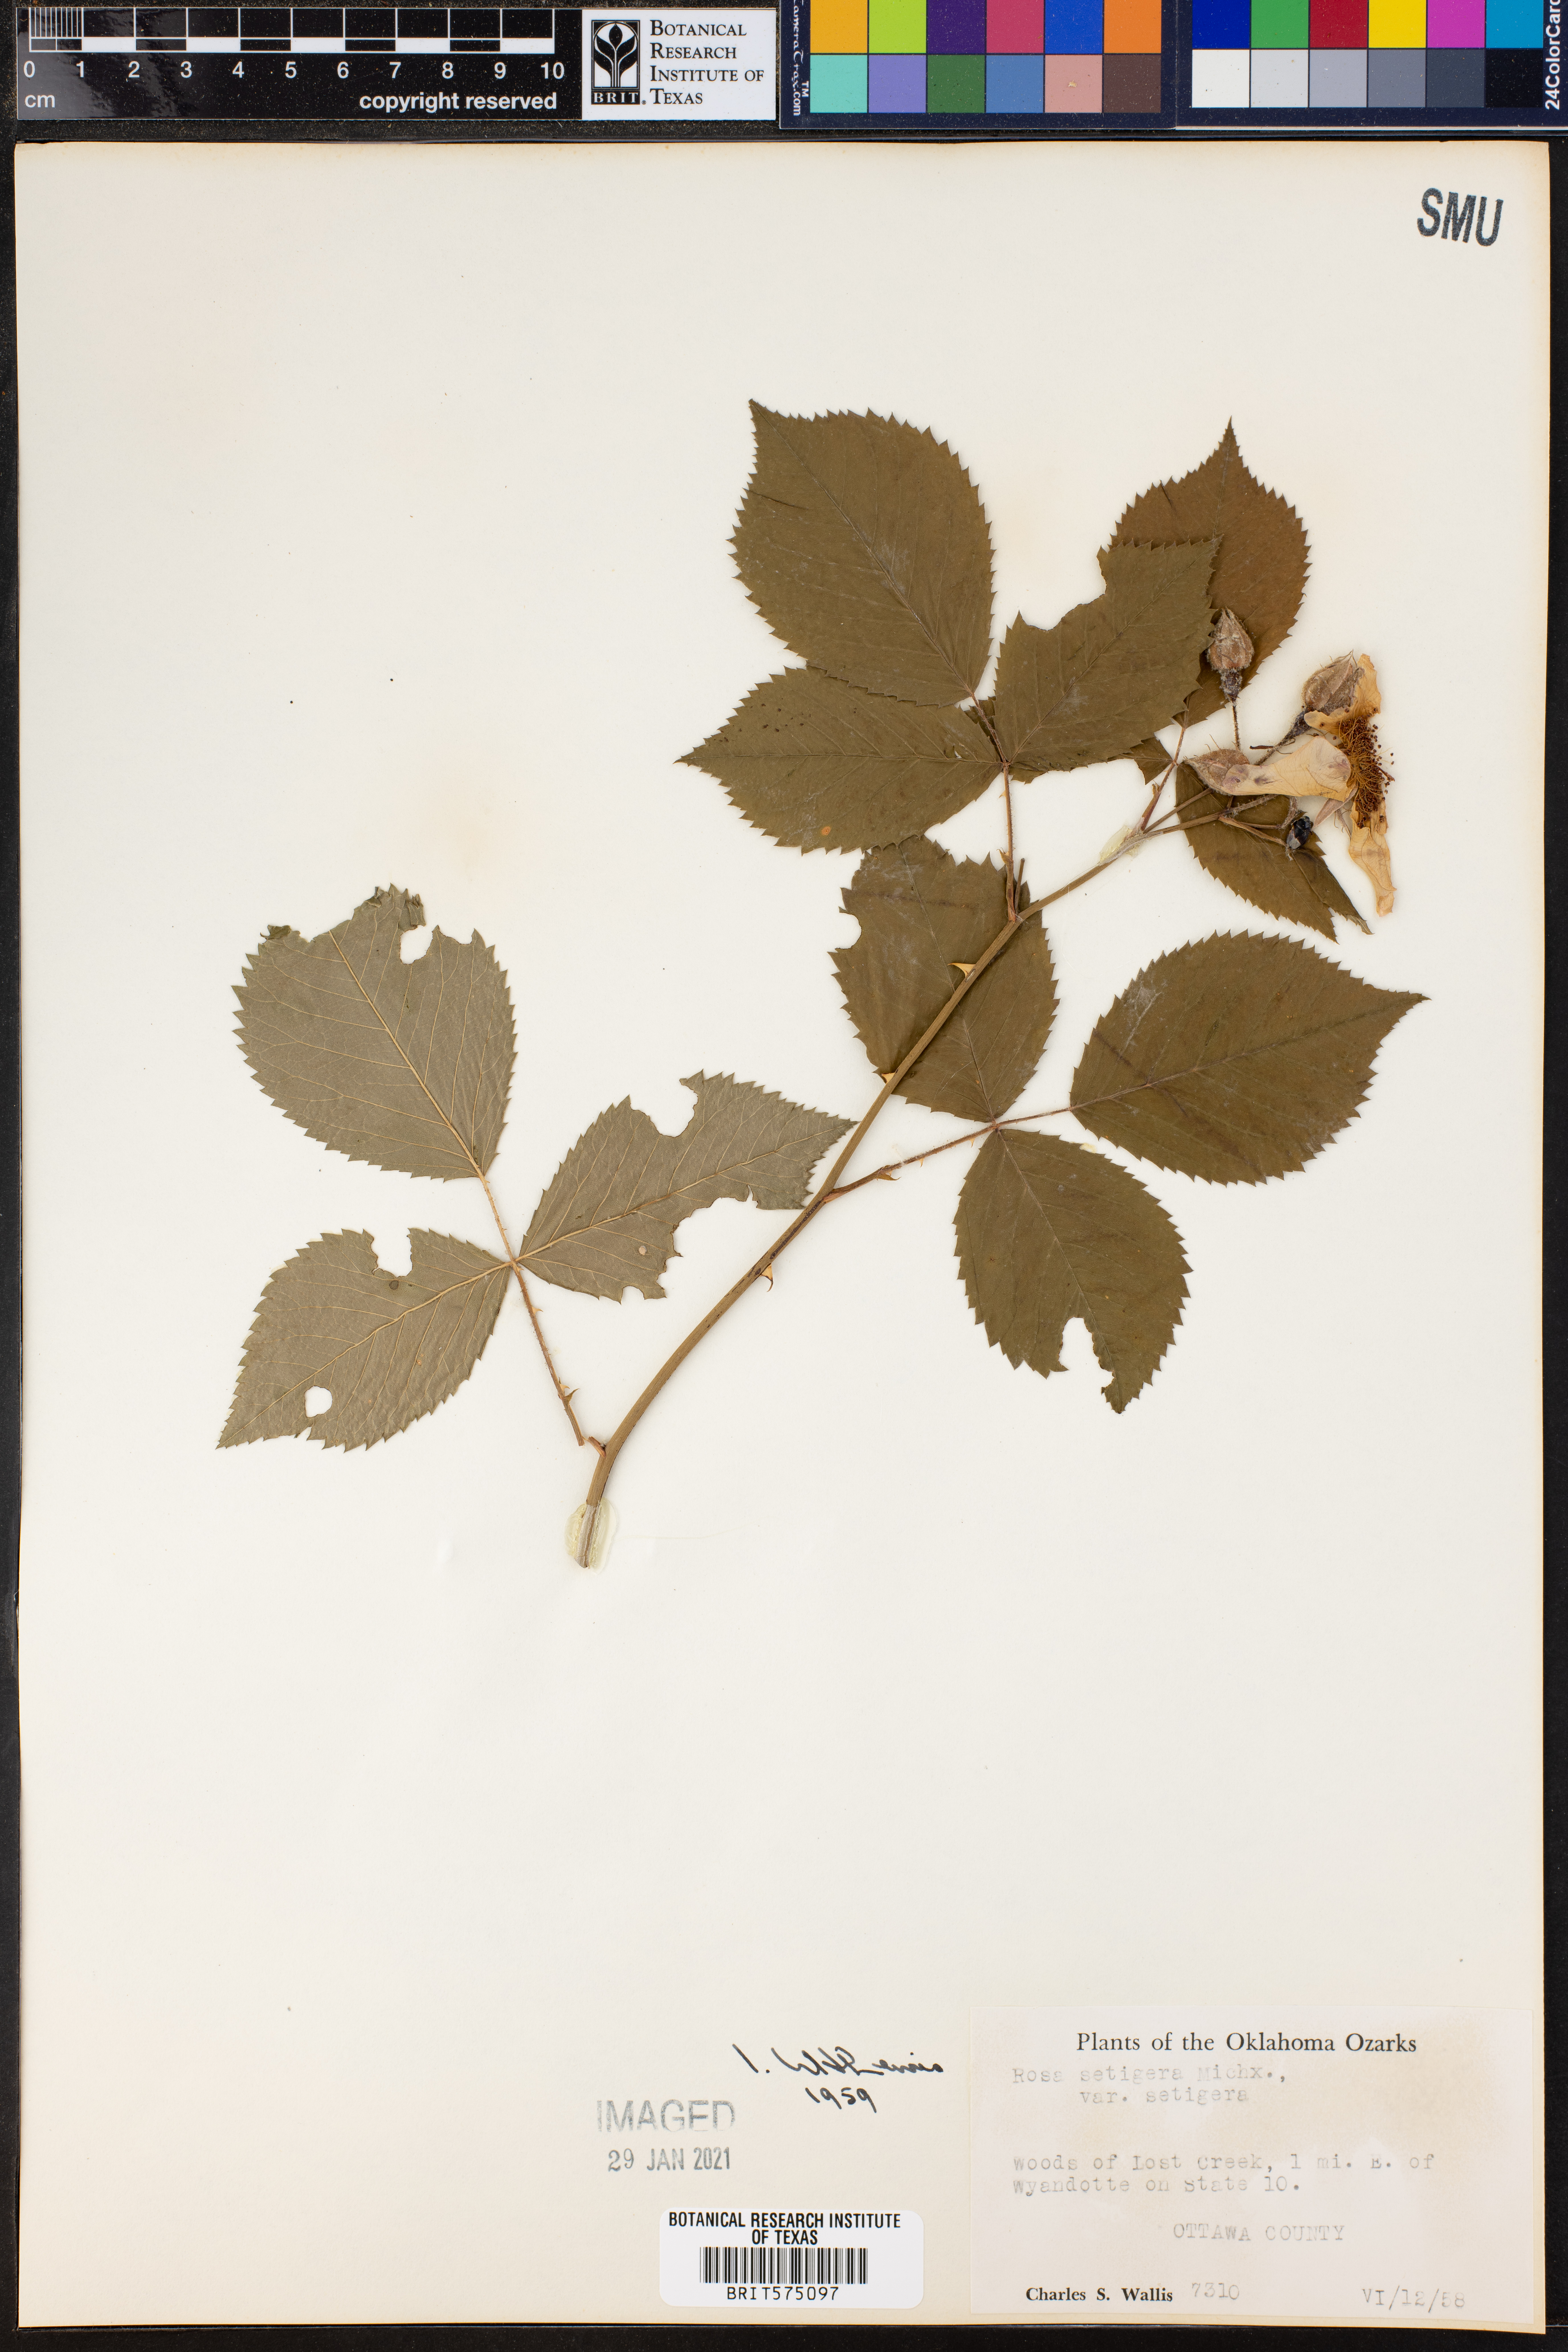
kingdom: Plantae
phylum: Tracheophyta
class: Magnoliopsida
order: Rosales
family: Rosaceae
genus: Rosa
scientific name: Rosa setigera
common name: Prairie rose
